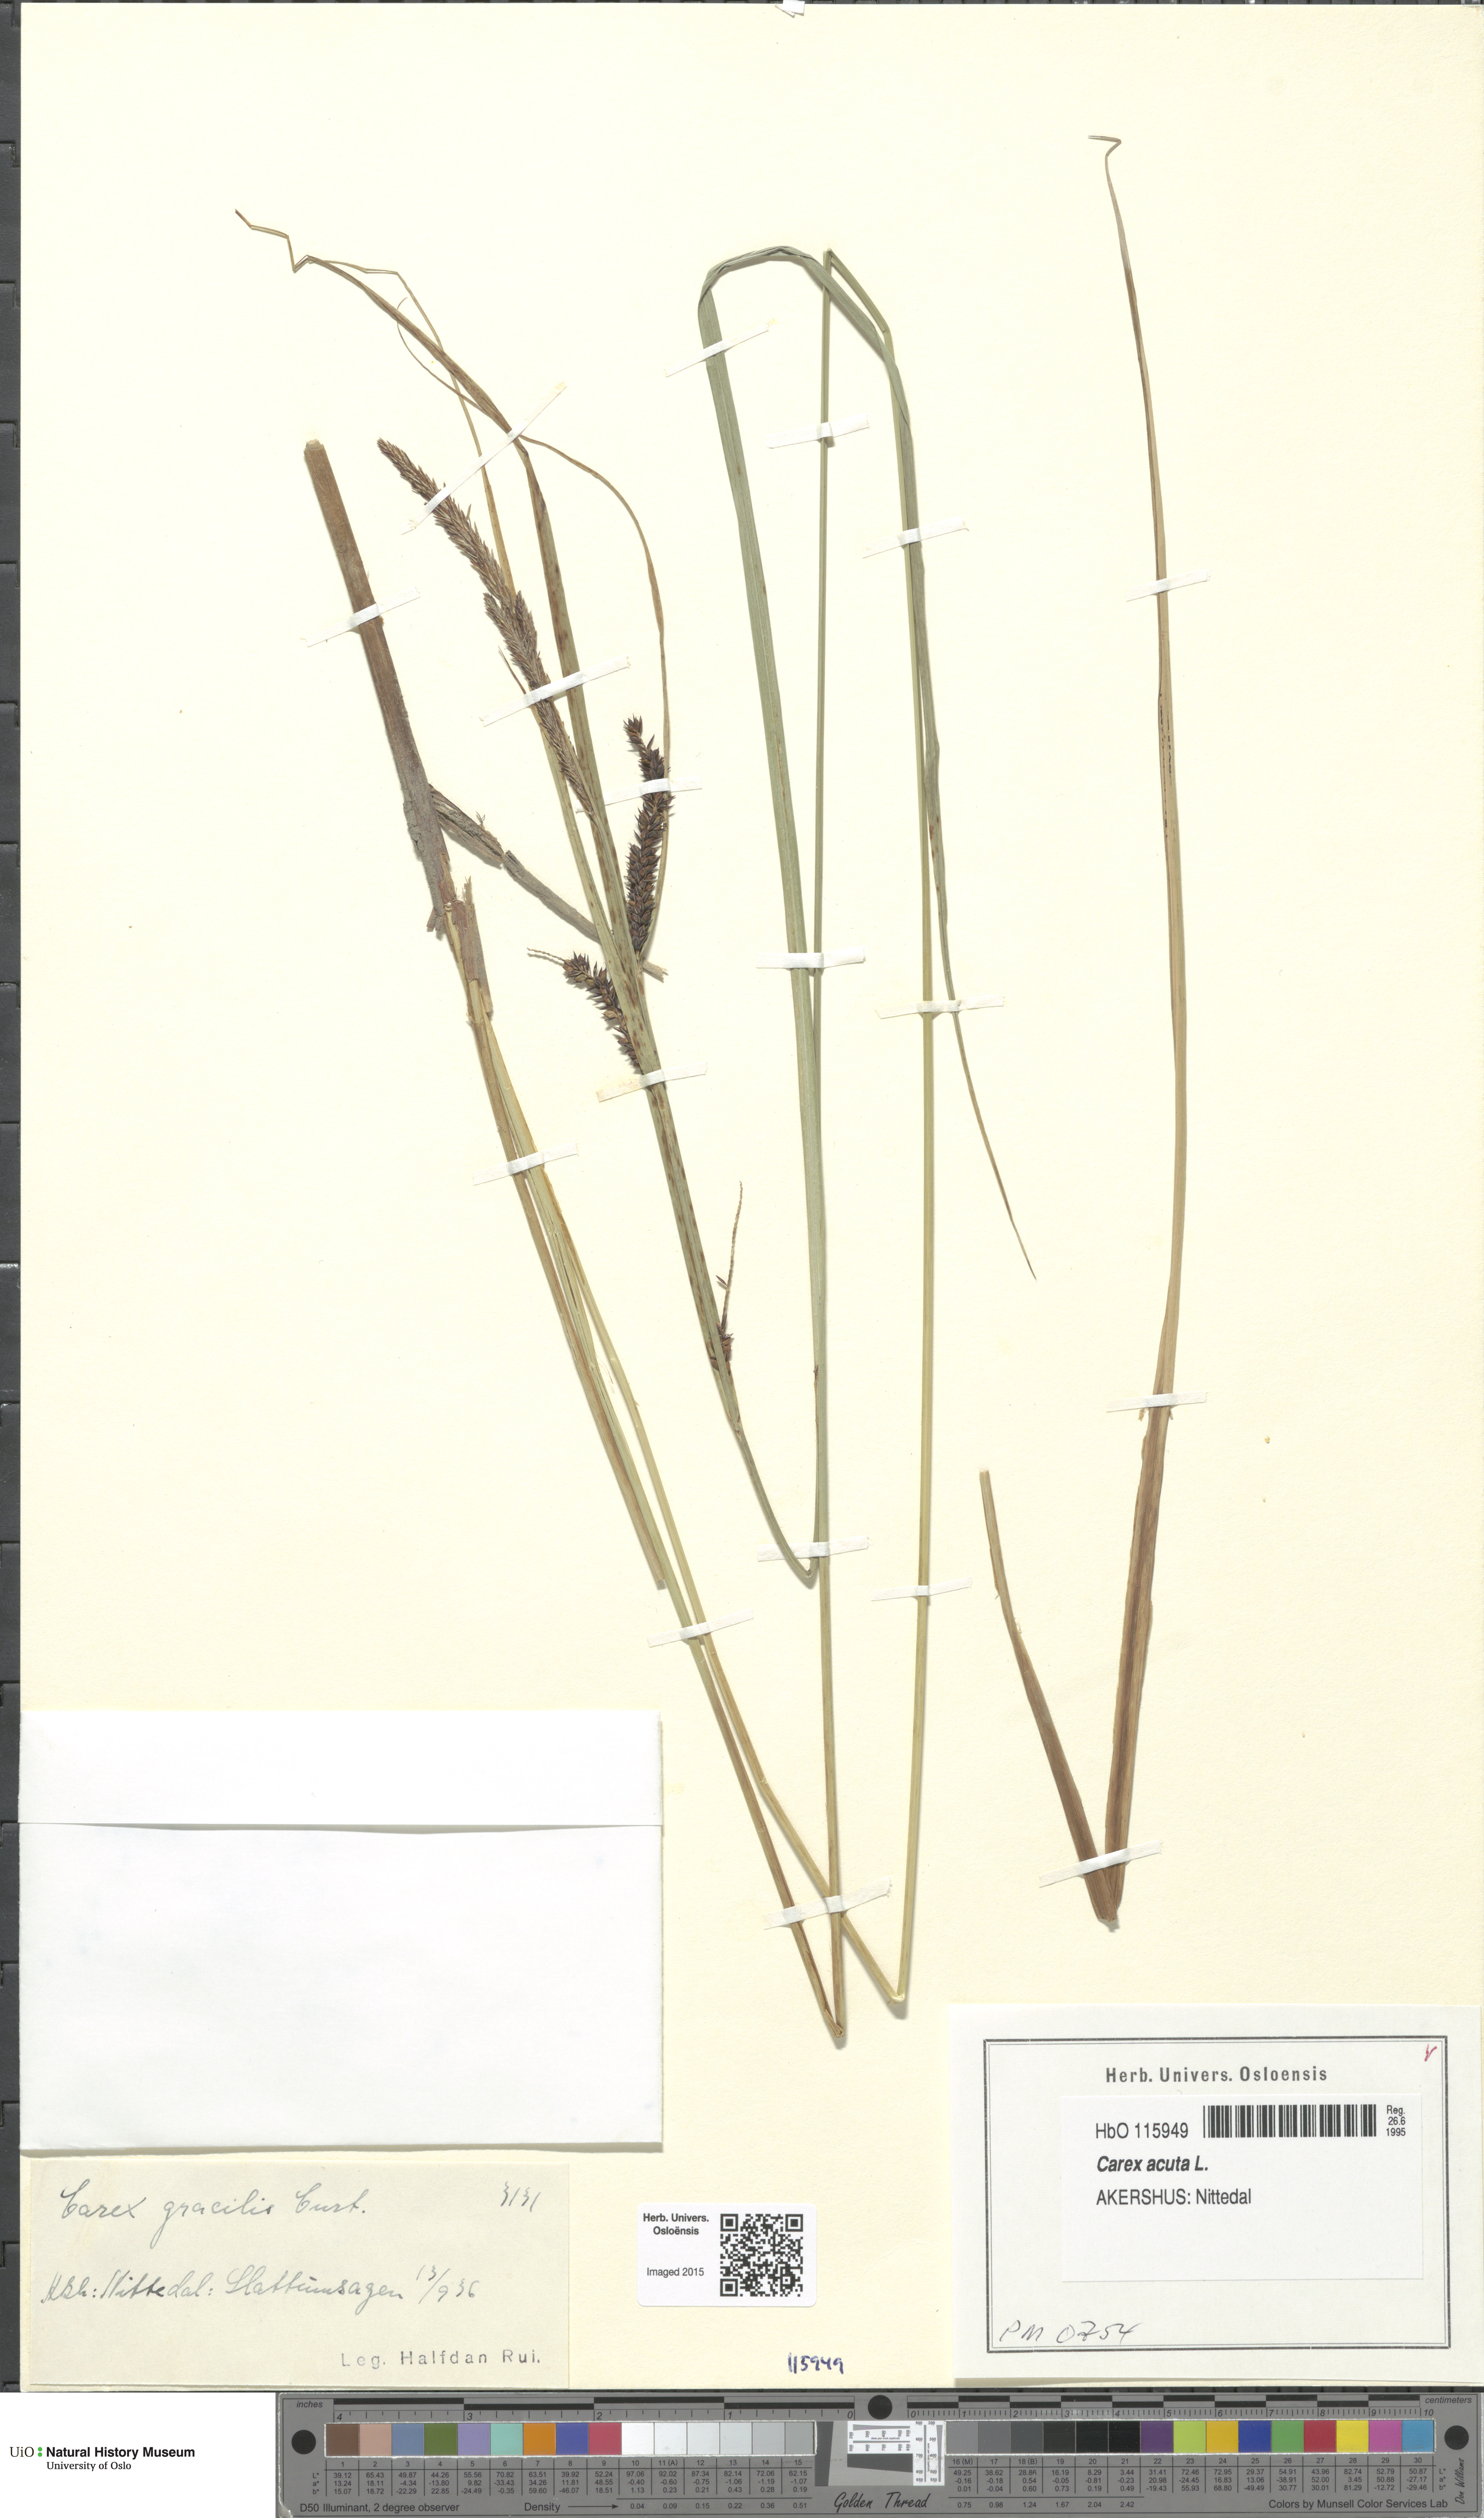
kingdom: Plantae
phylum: Tracheophyta
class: Liliopsida
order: Poales
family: Cyperaceae
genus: Carex
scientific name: Carex acuta
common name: Slender tufted-sedge
